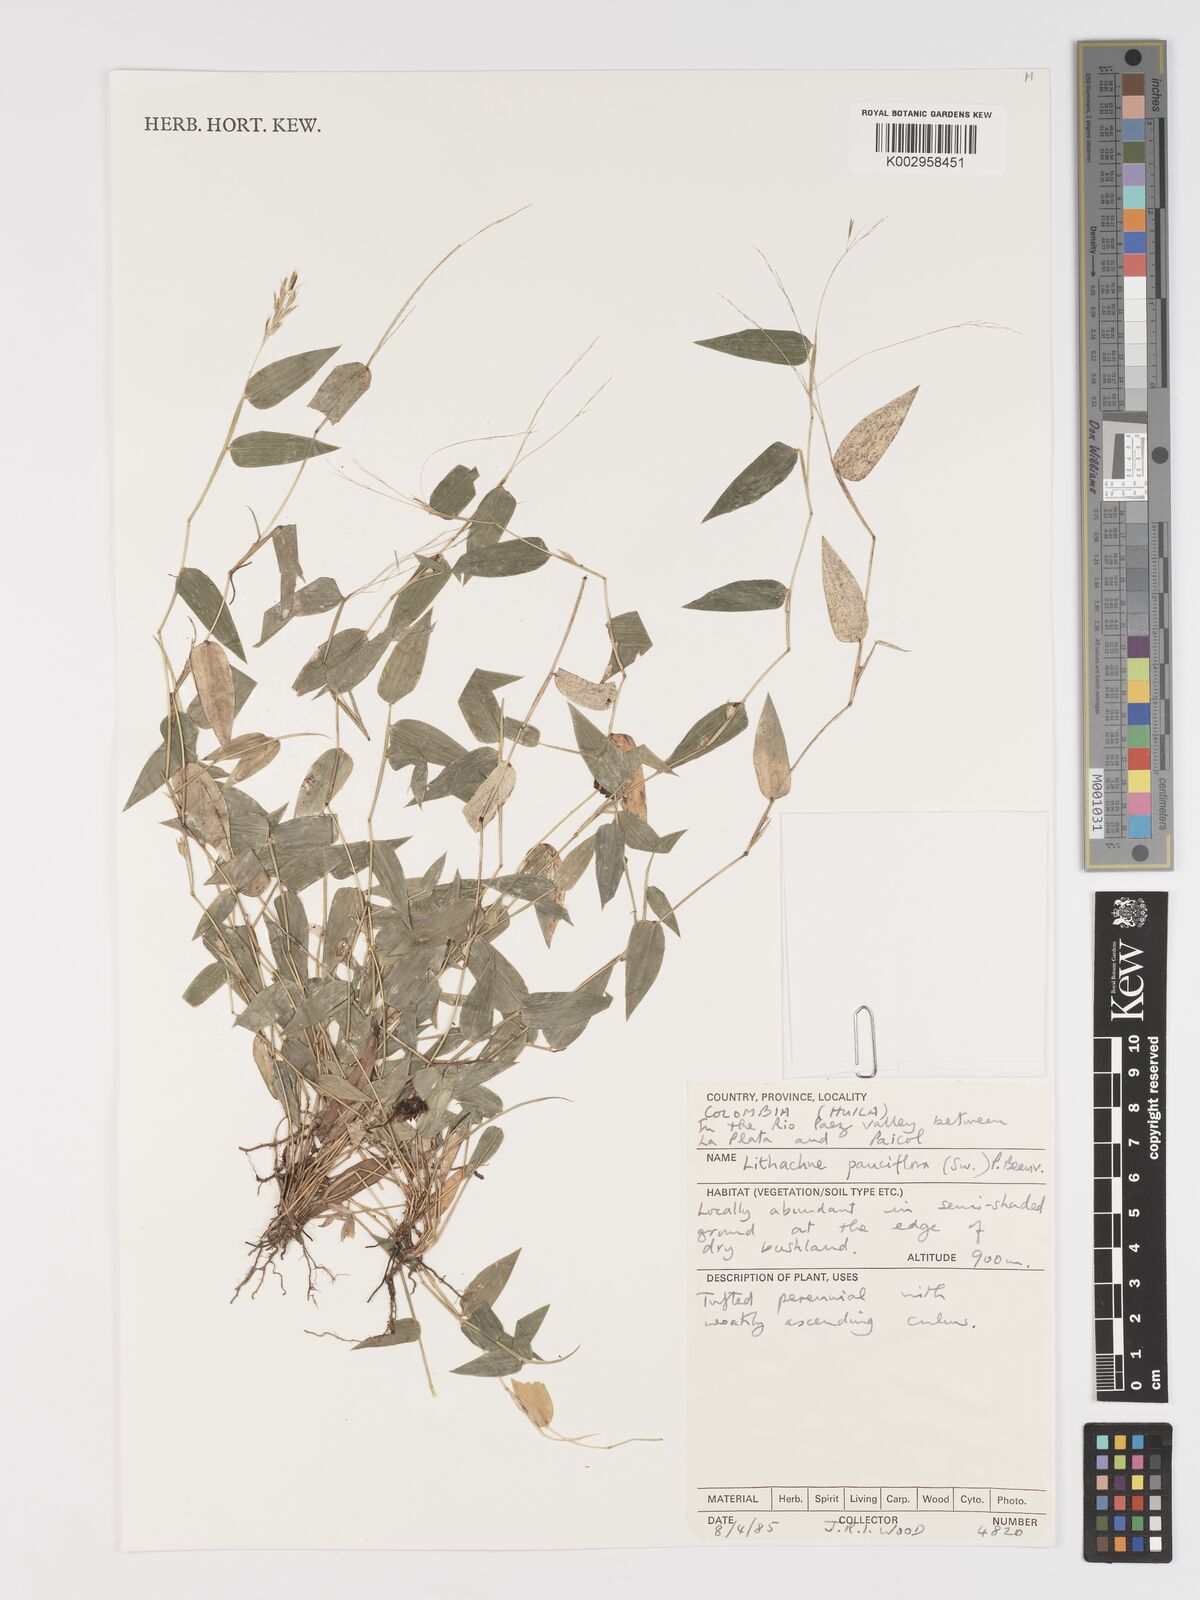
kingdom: Plantae
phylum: Tracheophyta
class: Liliopsida
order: Poales
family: Poaceae
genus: Lithachne
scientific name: Lithachne pauciflora
